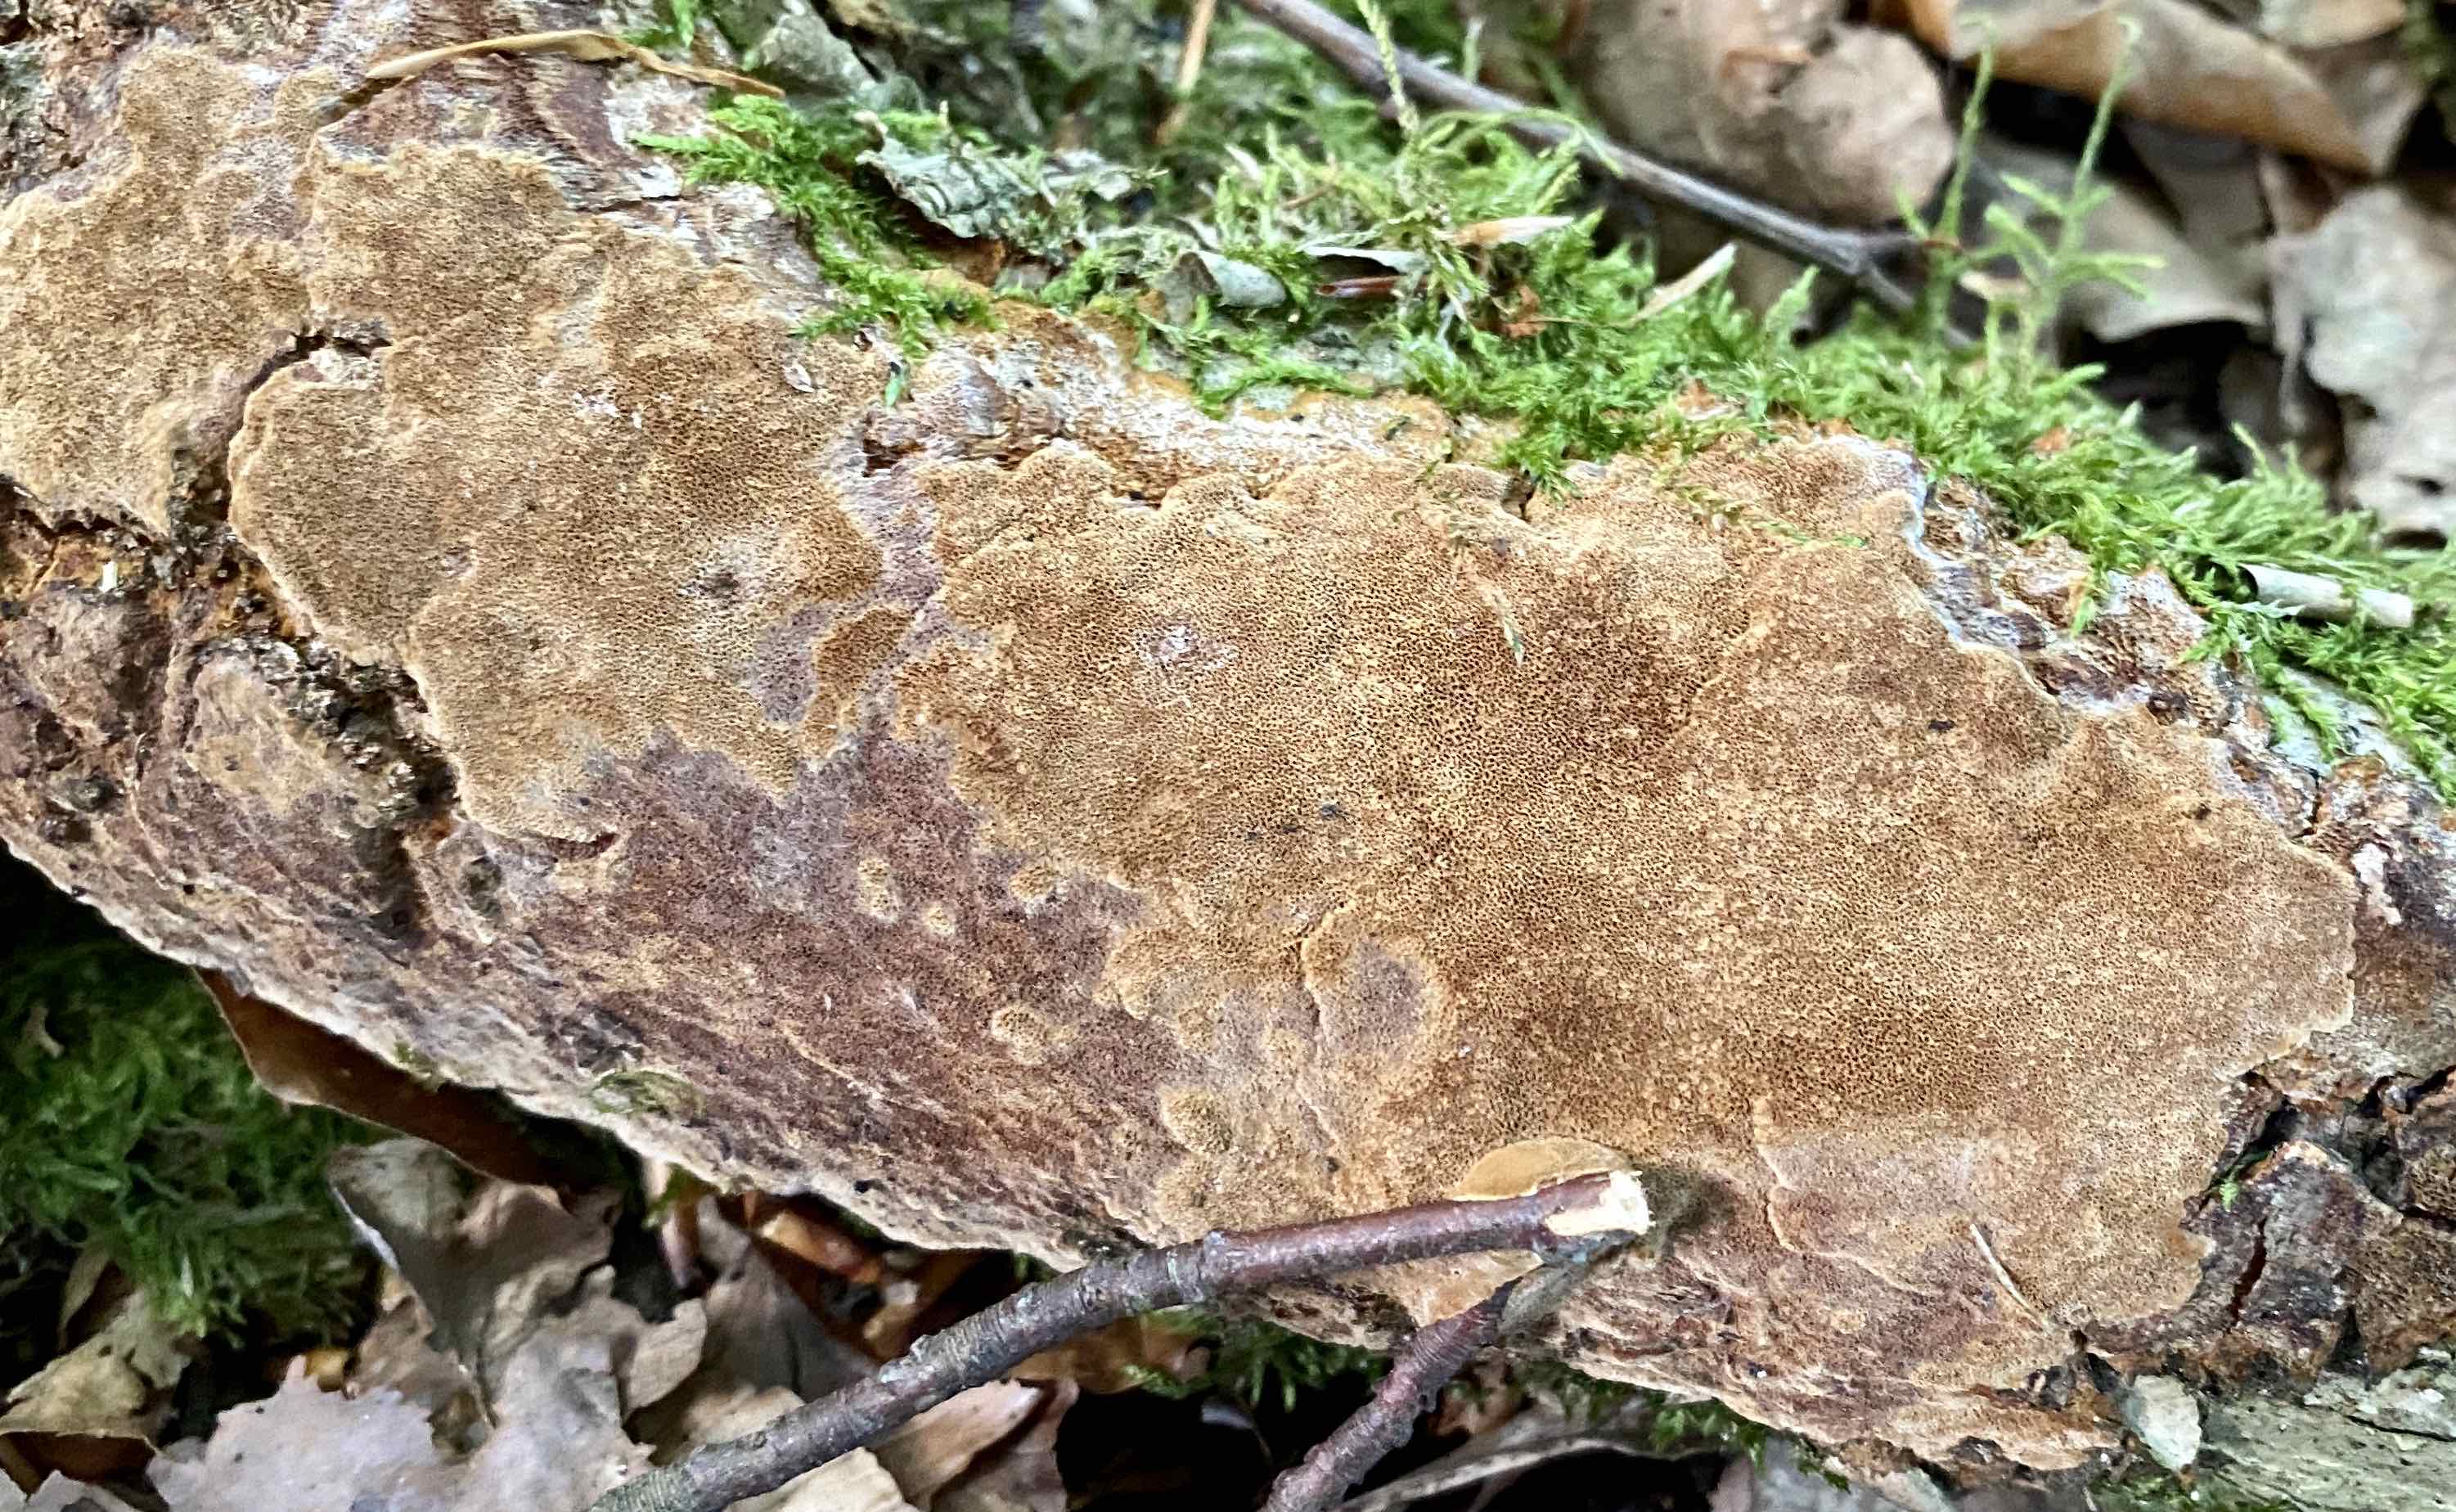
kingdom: Fungi
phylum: Basidiomycota
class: Agaricomycetes
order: Hymenochaetales
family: Hymenochaetaceae
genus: Fuscoporia
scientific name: Fuscoporia ferrea
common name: skorpe-ildporesvamp
